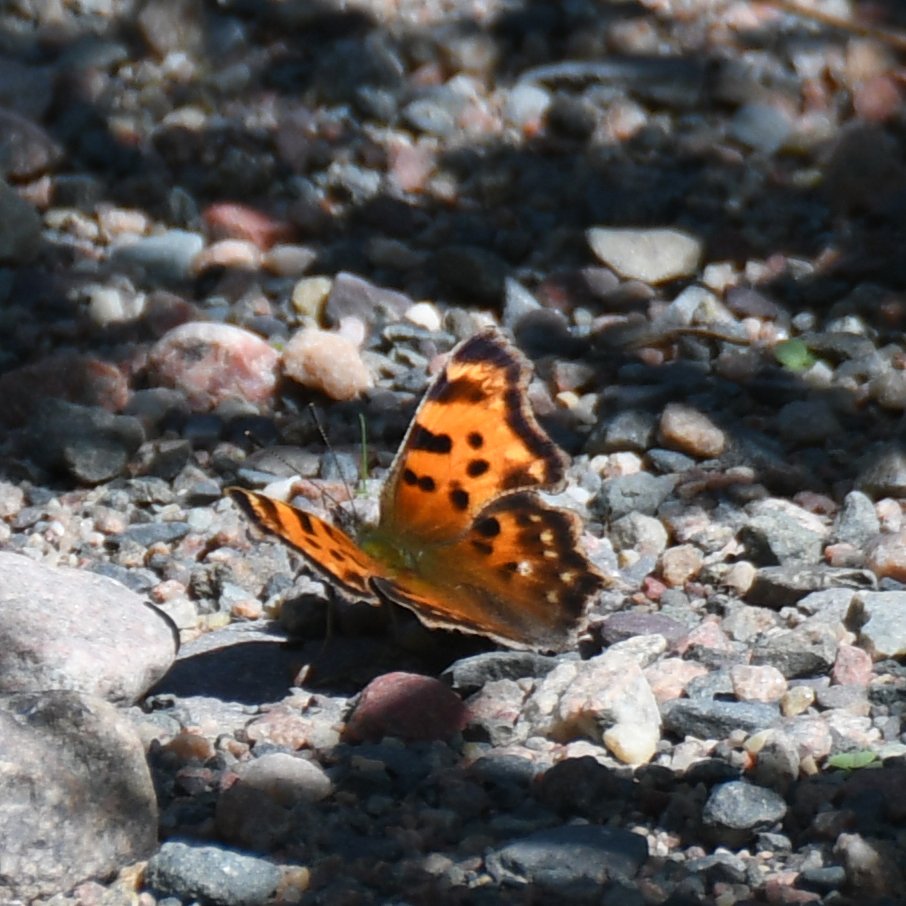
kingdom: Animalia
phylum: Arthropoda
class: Insecta
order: Lepidoptera
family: Nymphalidae
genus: Polygonia
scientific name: Polygonia faunus
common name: Green Comma
